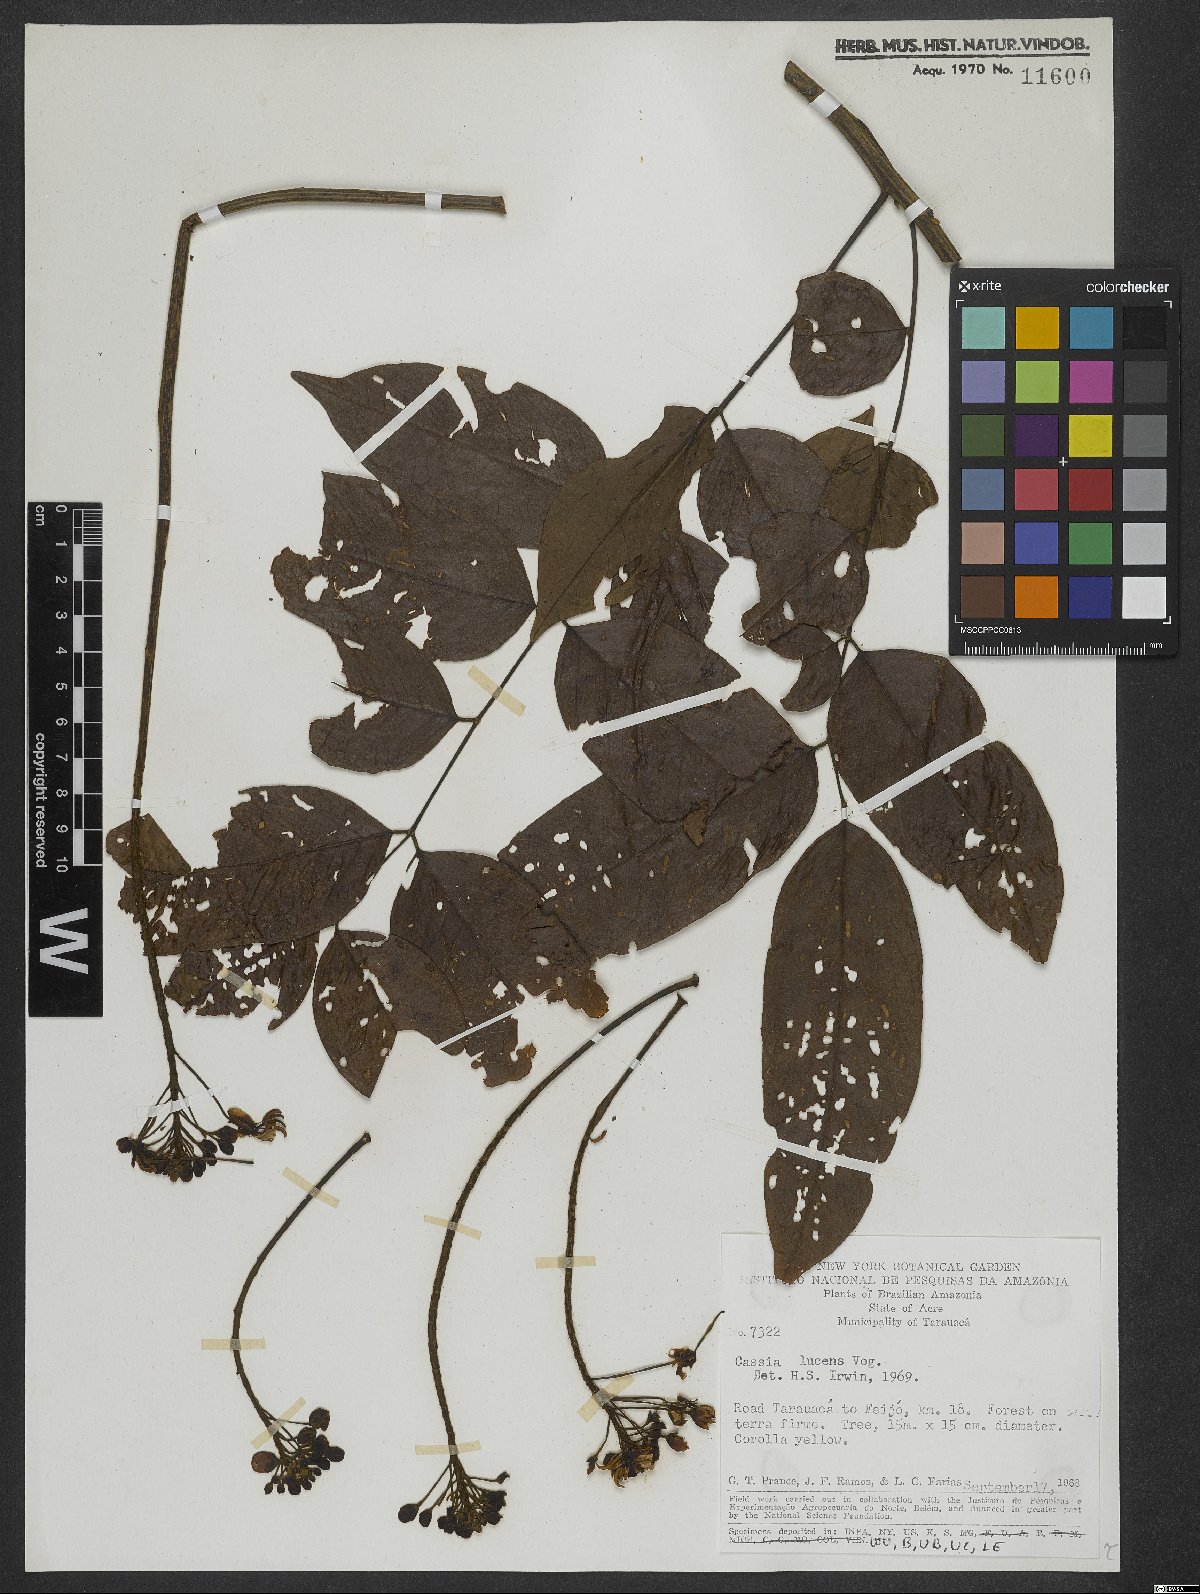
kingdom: Plantae
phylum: Tracheophyta
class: Magnoliopsida
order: Fabales
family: Fabaceae
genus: Senna
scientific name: Senna silvestris
